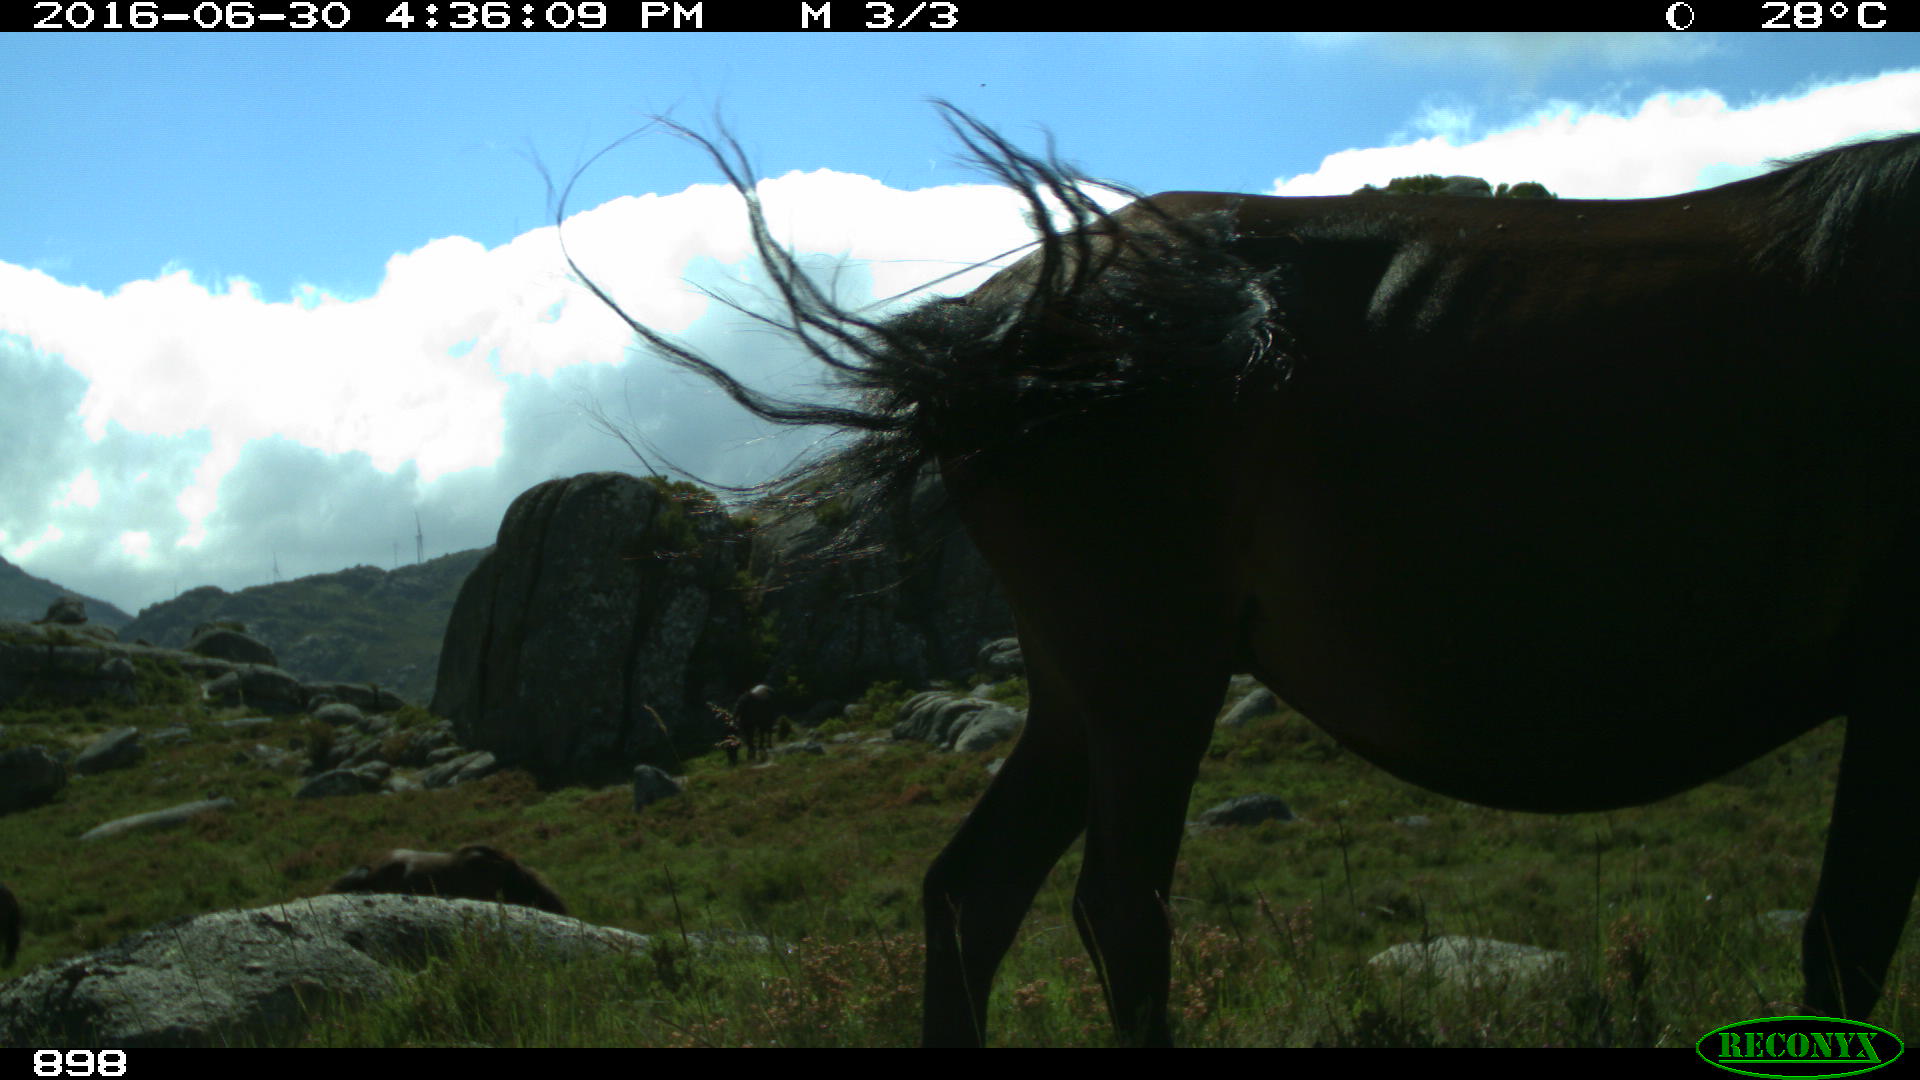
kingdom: Animalia
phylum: Chordata
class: Mammalia
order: Perissodactyla
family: Equidae
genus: Equus
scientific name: Equus caballus
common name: Horse
